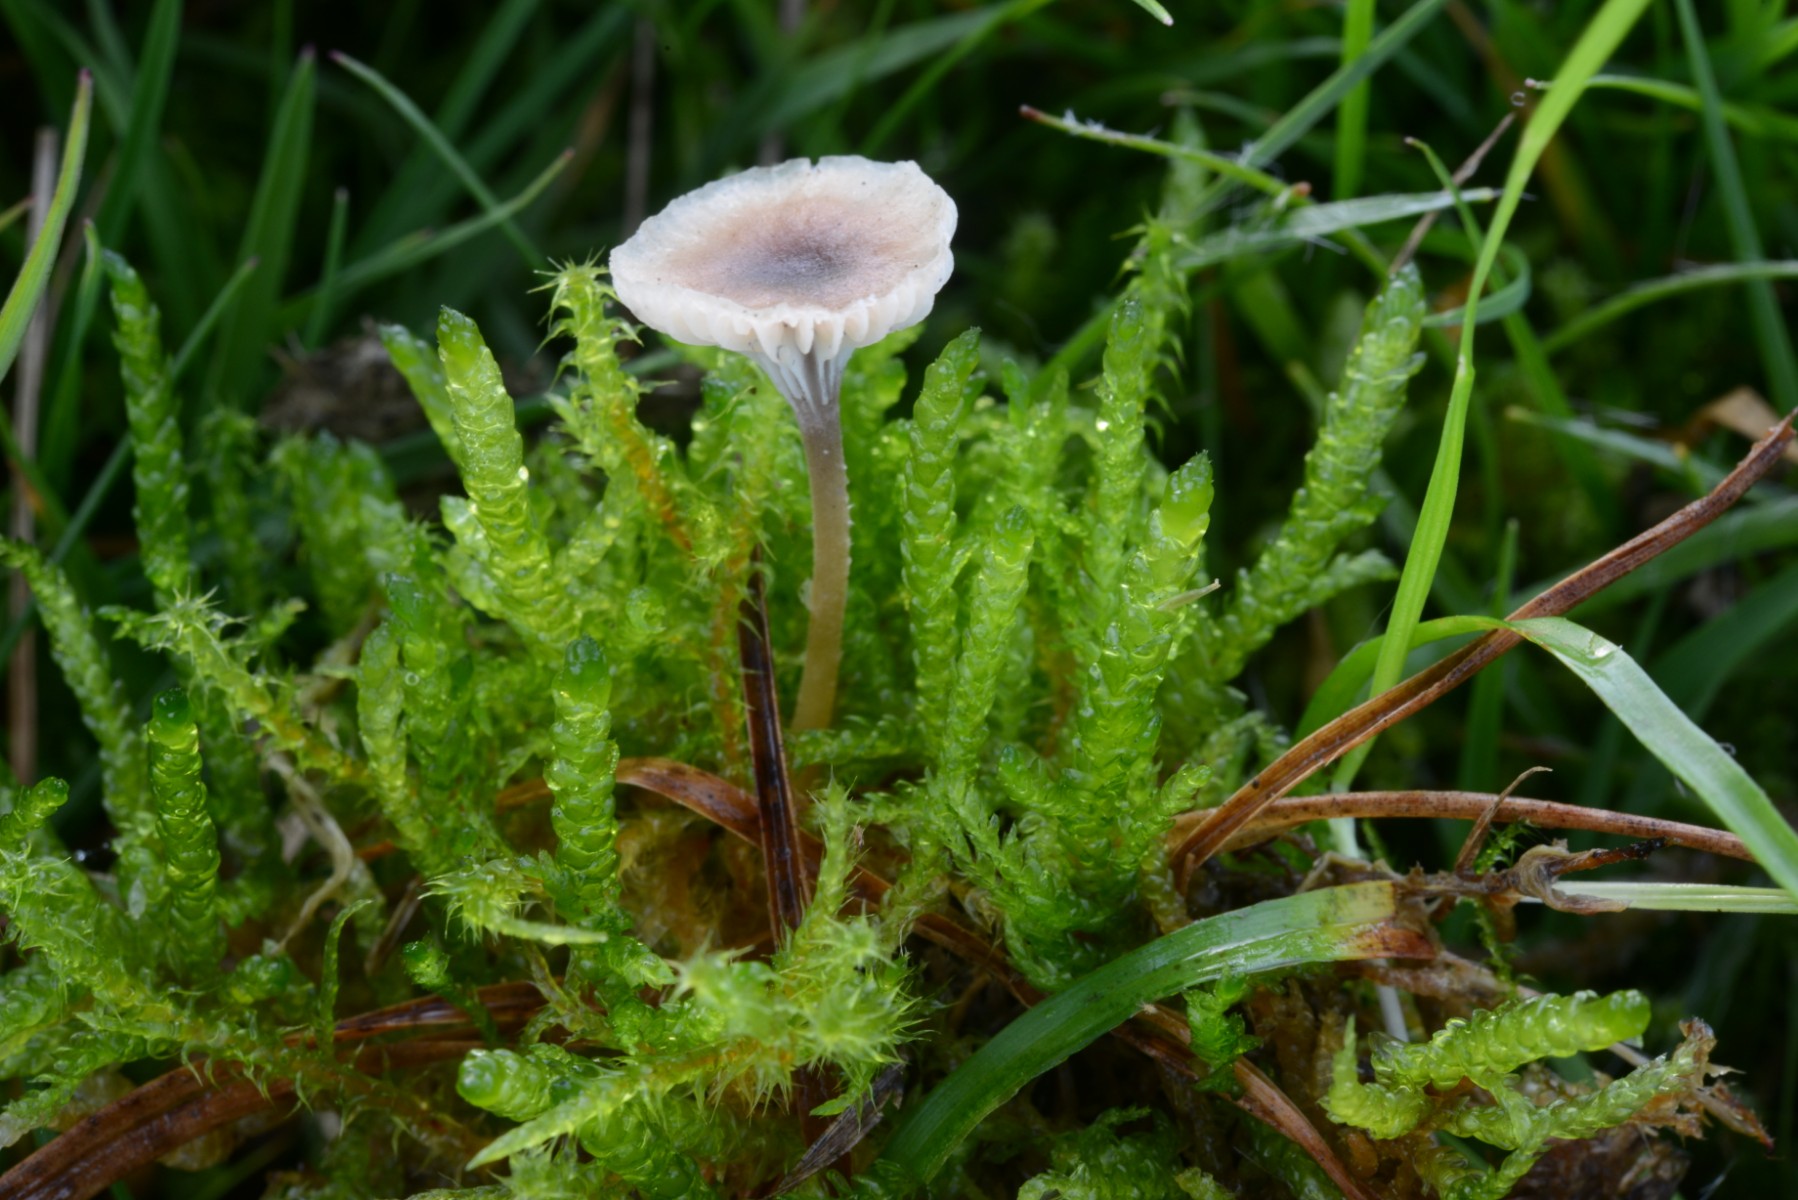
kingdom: Fungi
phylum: Basidiomycota
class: Agaricomycetes
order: Hymenochaetales
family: Rickenellaceae
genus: Rickenella
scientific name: Rickenella swartzii
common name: finstokket mosnavlehat
